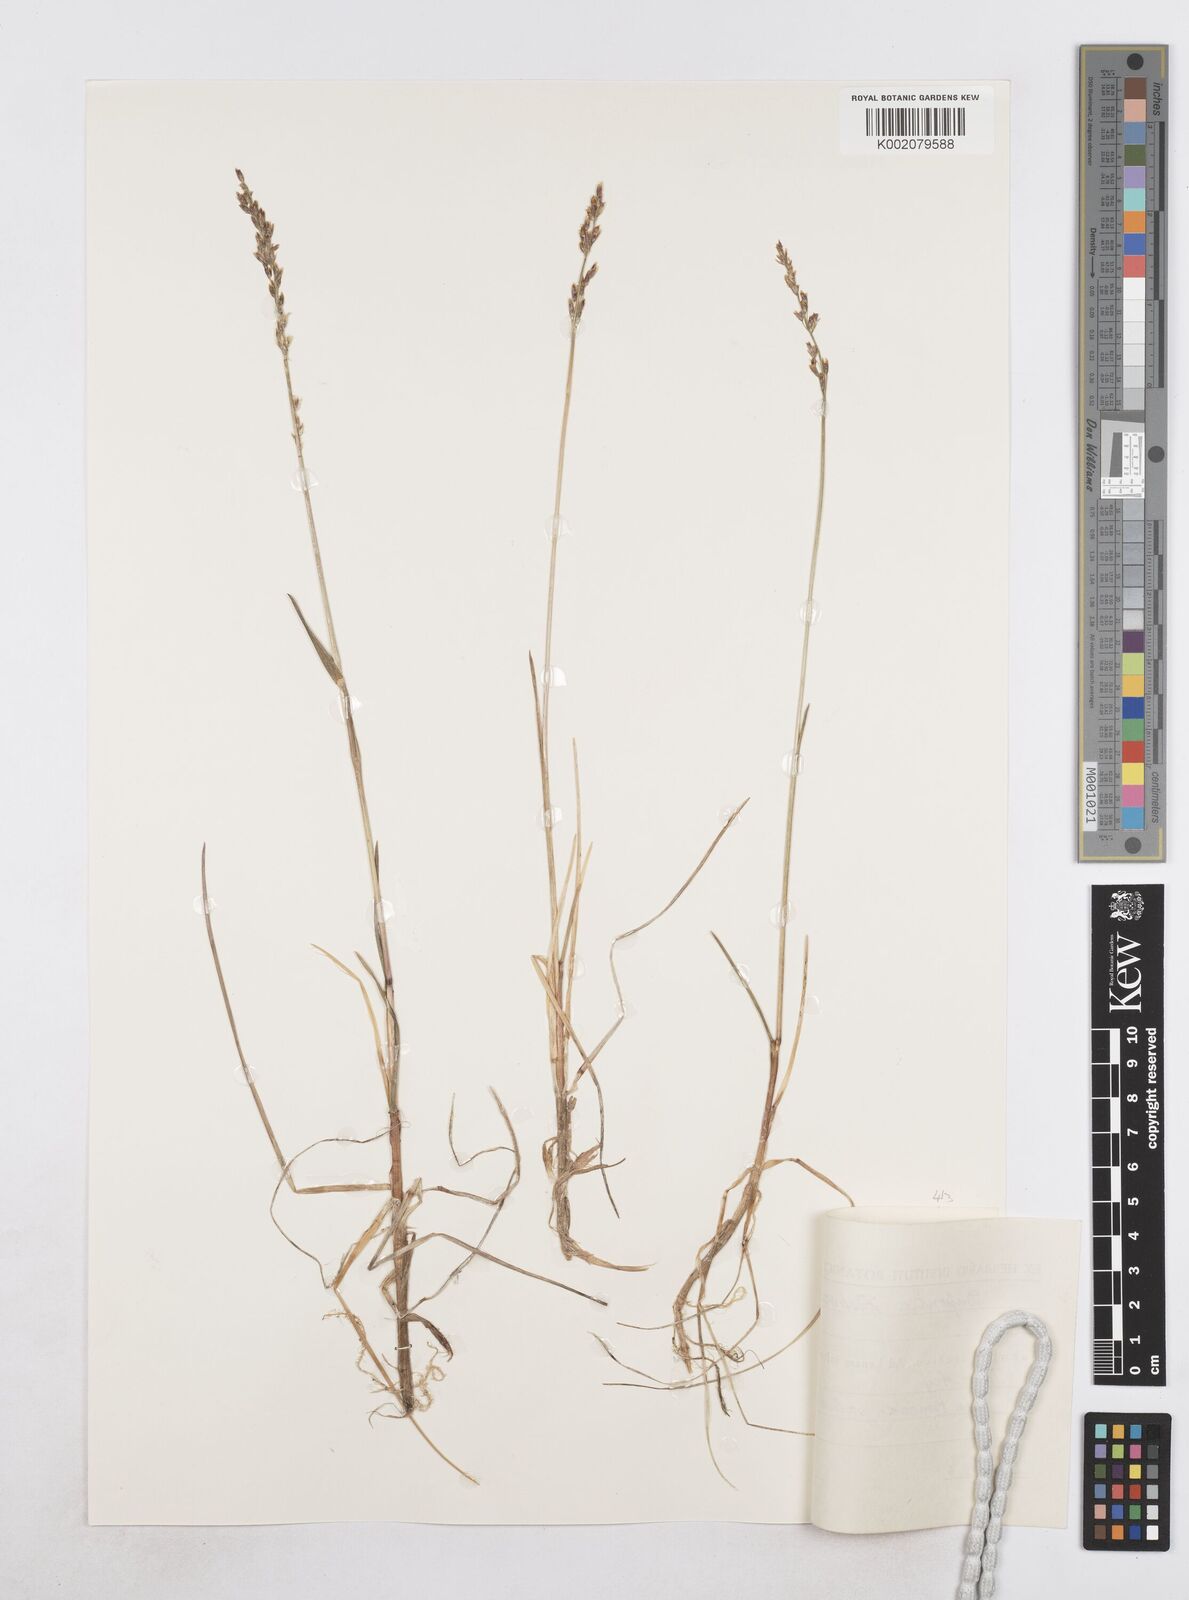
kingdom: Plantae
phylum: Tracheophyta
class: Liliopsida
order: Poales
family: Poaceae
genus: Dupontia
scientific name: Dupontia fisheri
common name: Tundra grass
